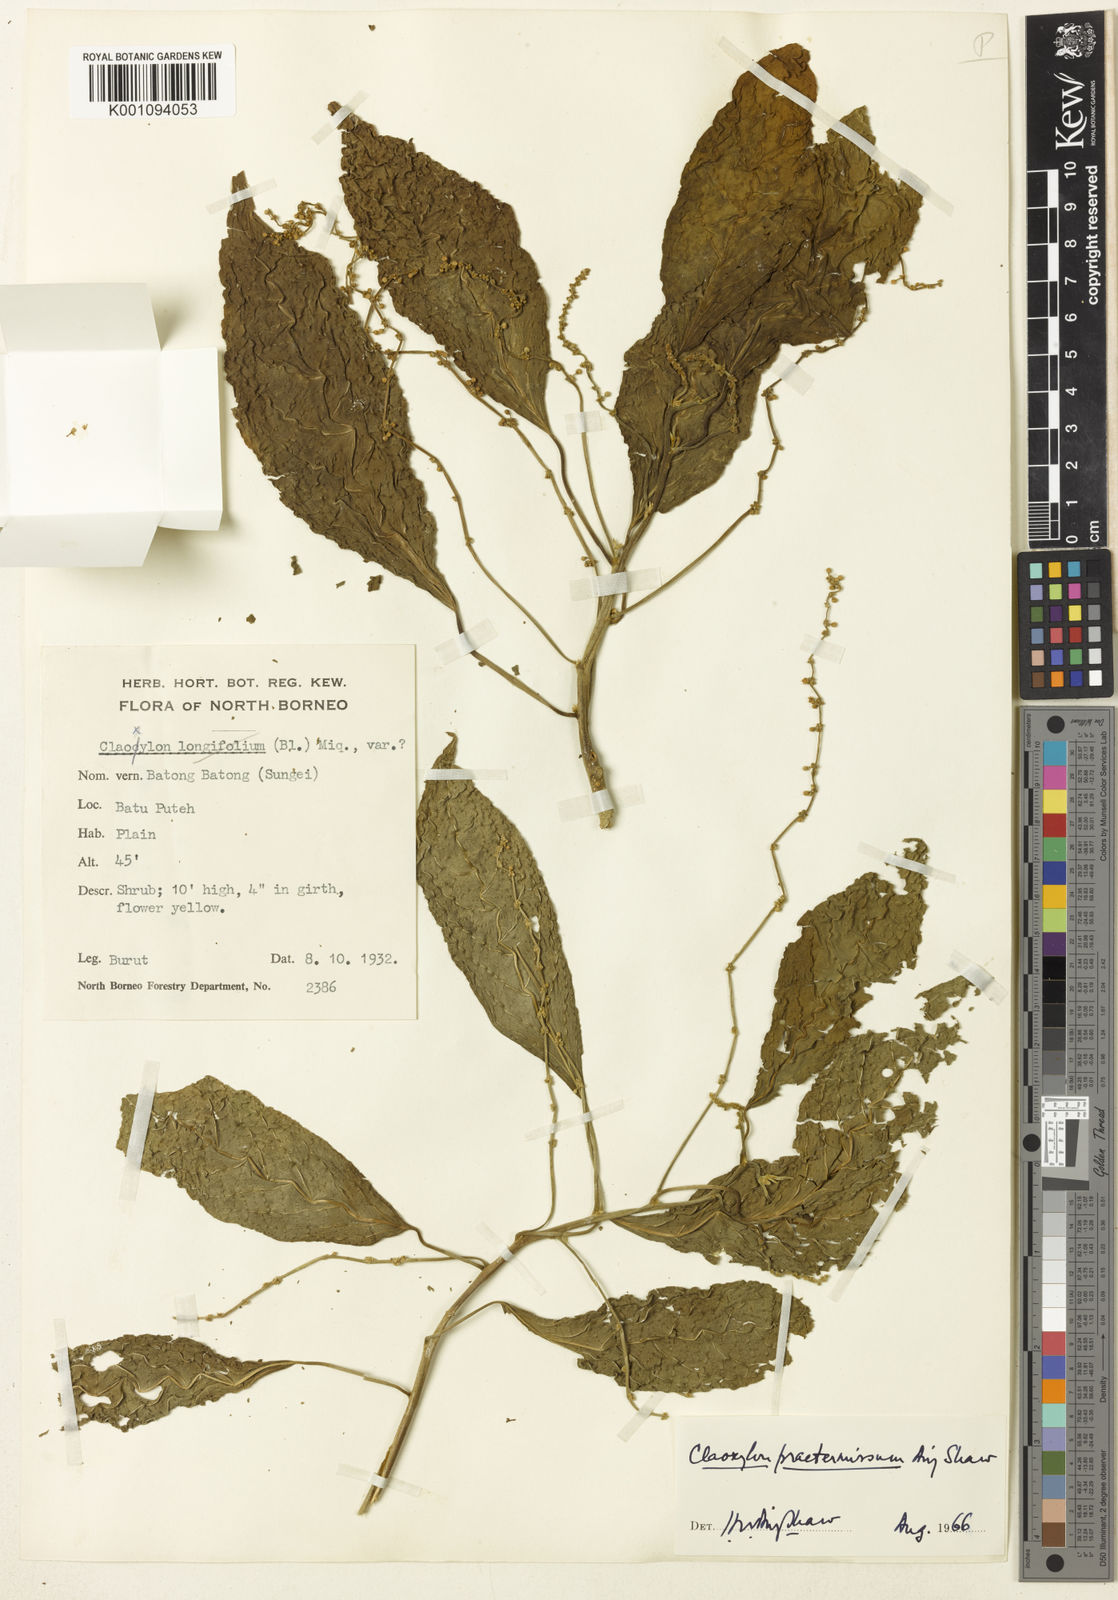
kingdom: Plantae
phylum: Tracheophyta
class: Magnoliopsida
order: Malpighiales
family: Euphorbiaceae
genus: Claoxylon
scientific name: Claoxylon praetermissum
